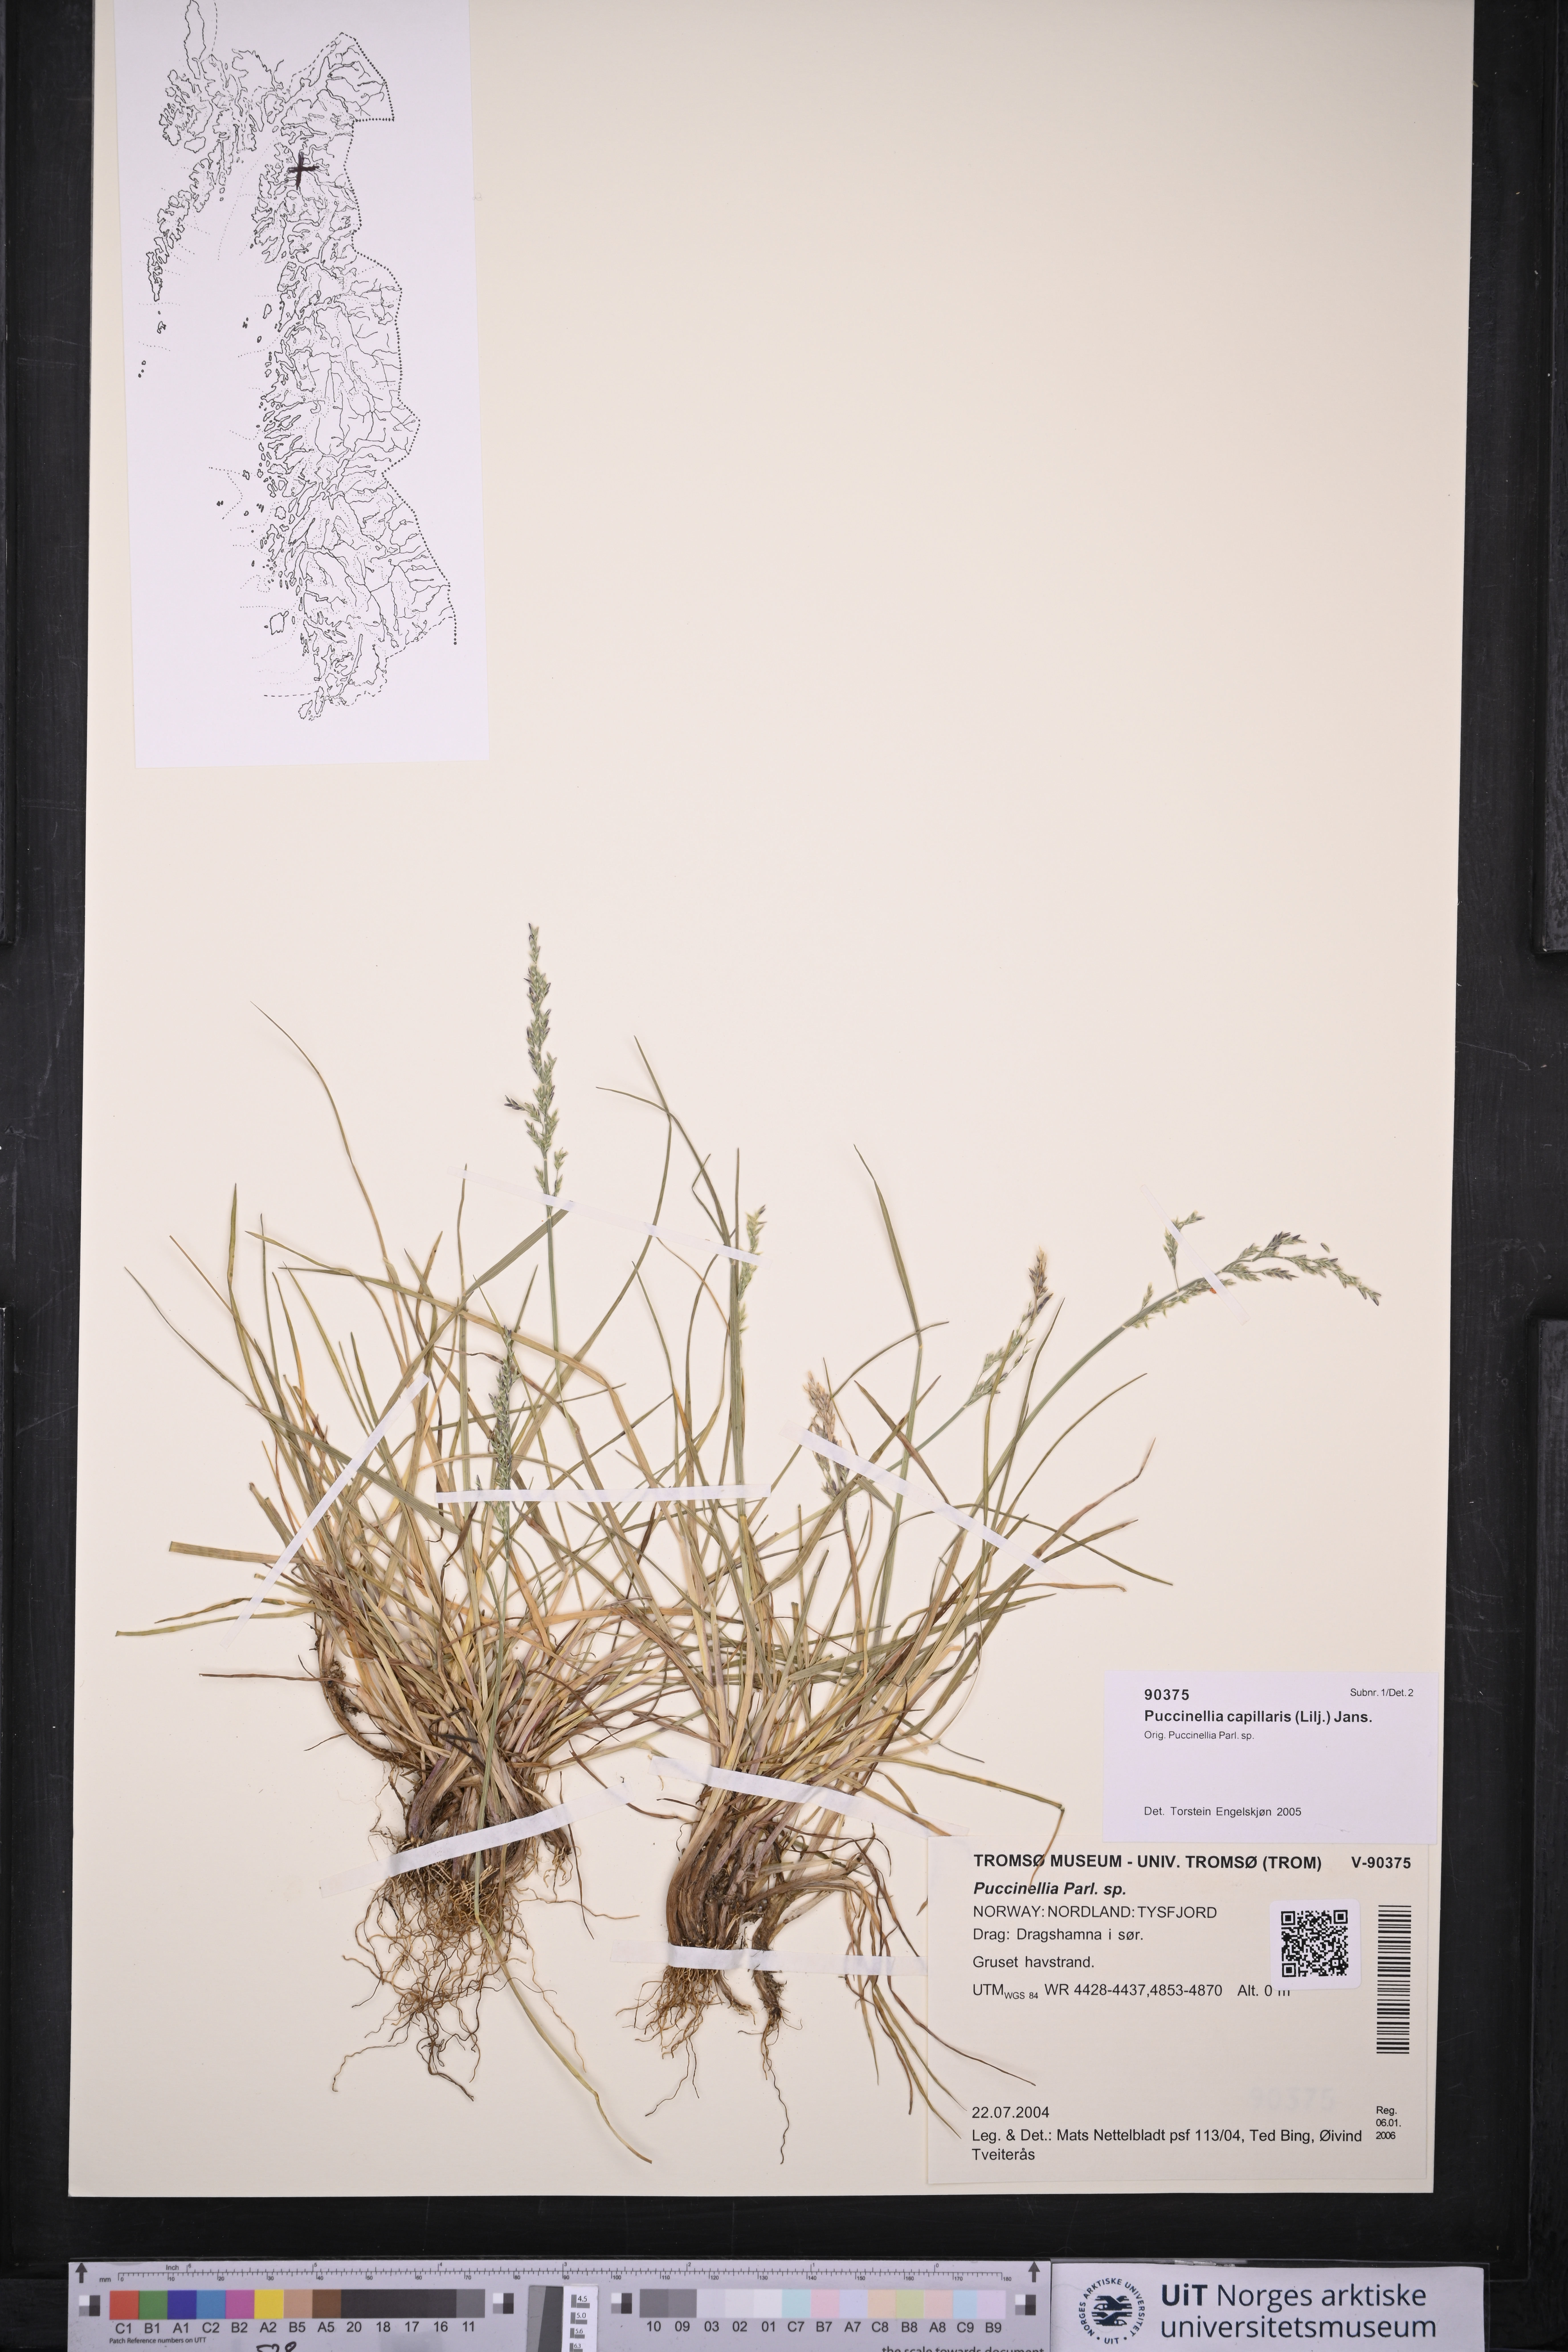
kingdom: Plantae
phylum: Tracheophyta
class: Liliopsida
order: Poales
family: Poaceae
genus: Puccinellia
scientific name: Puccinellia distans
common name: Weeping alkaligrass
